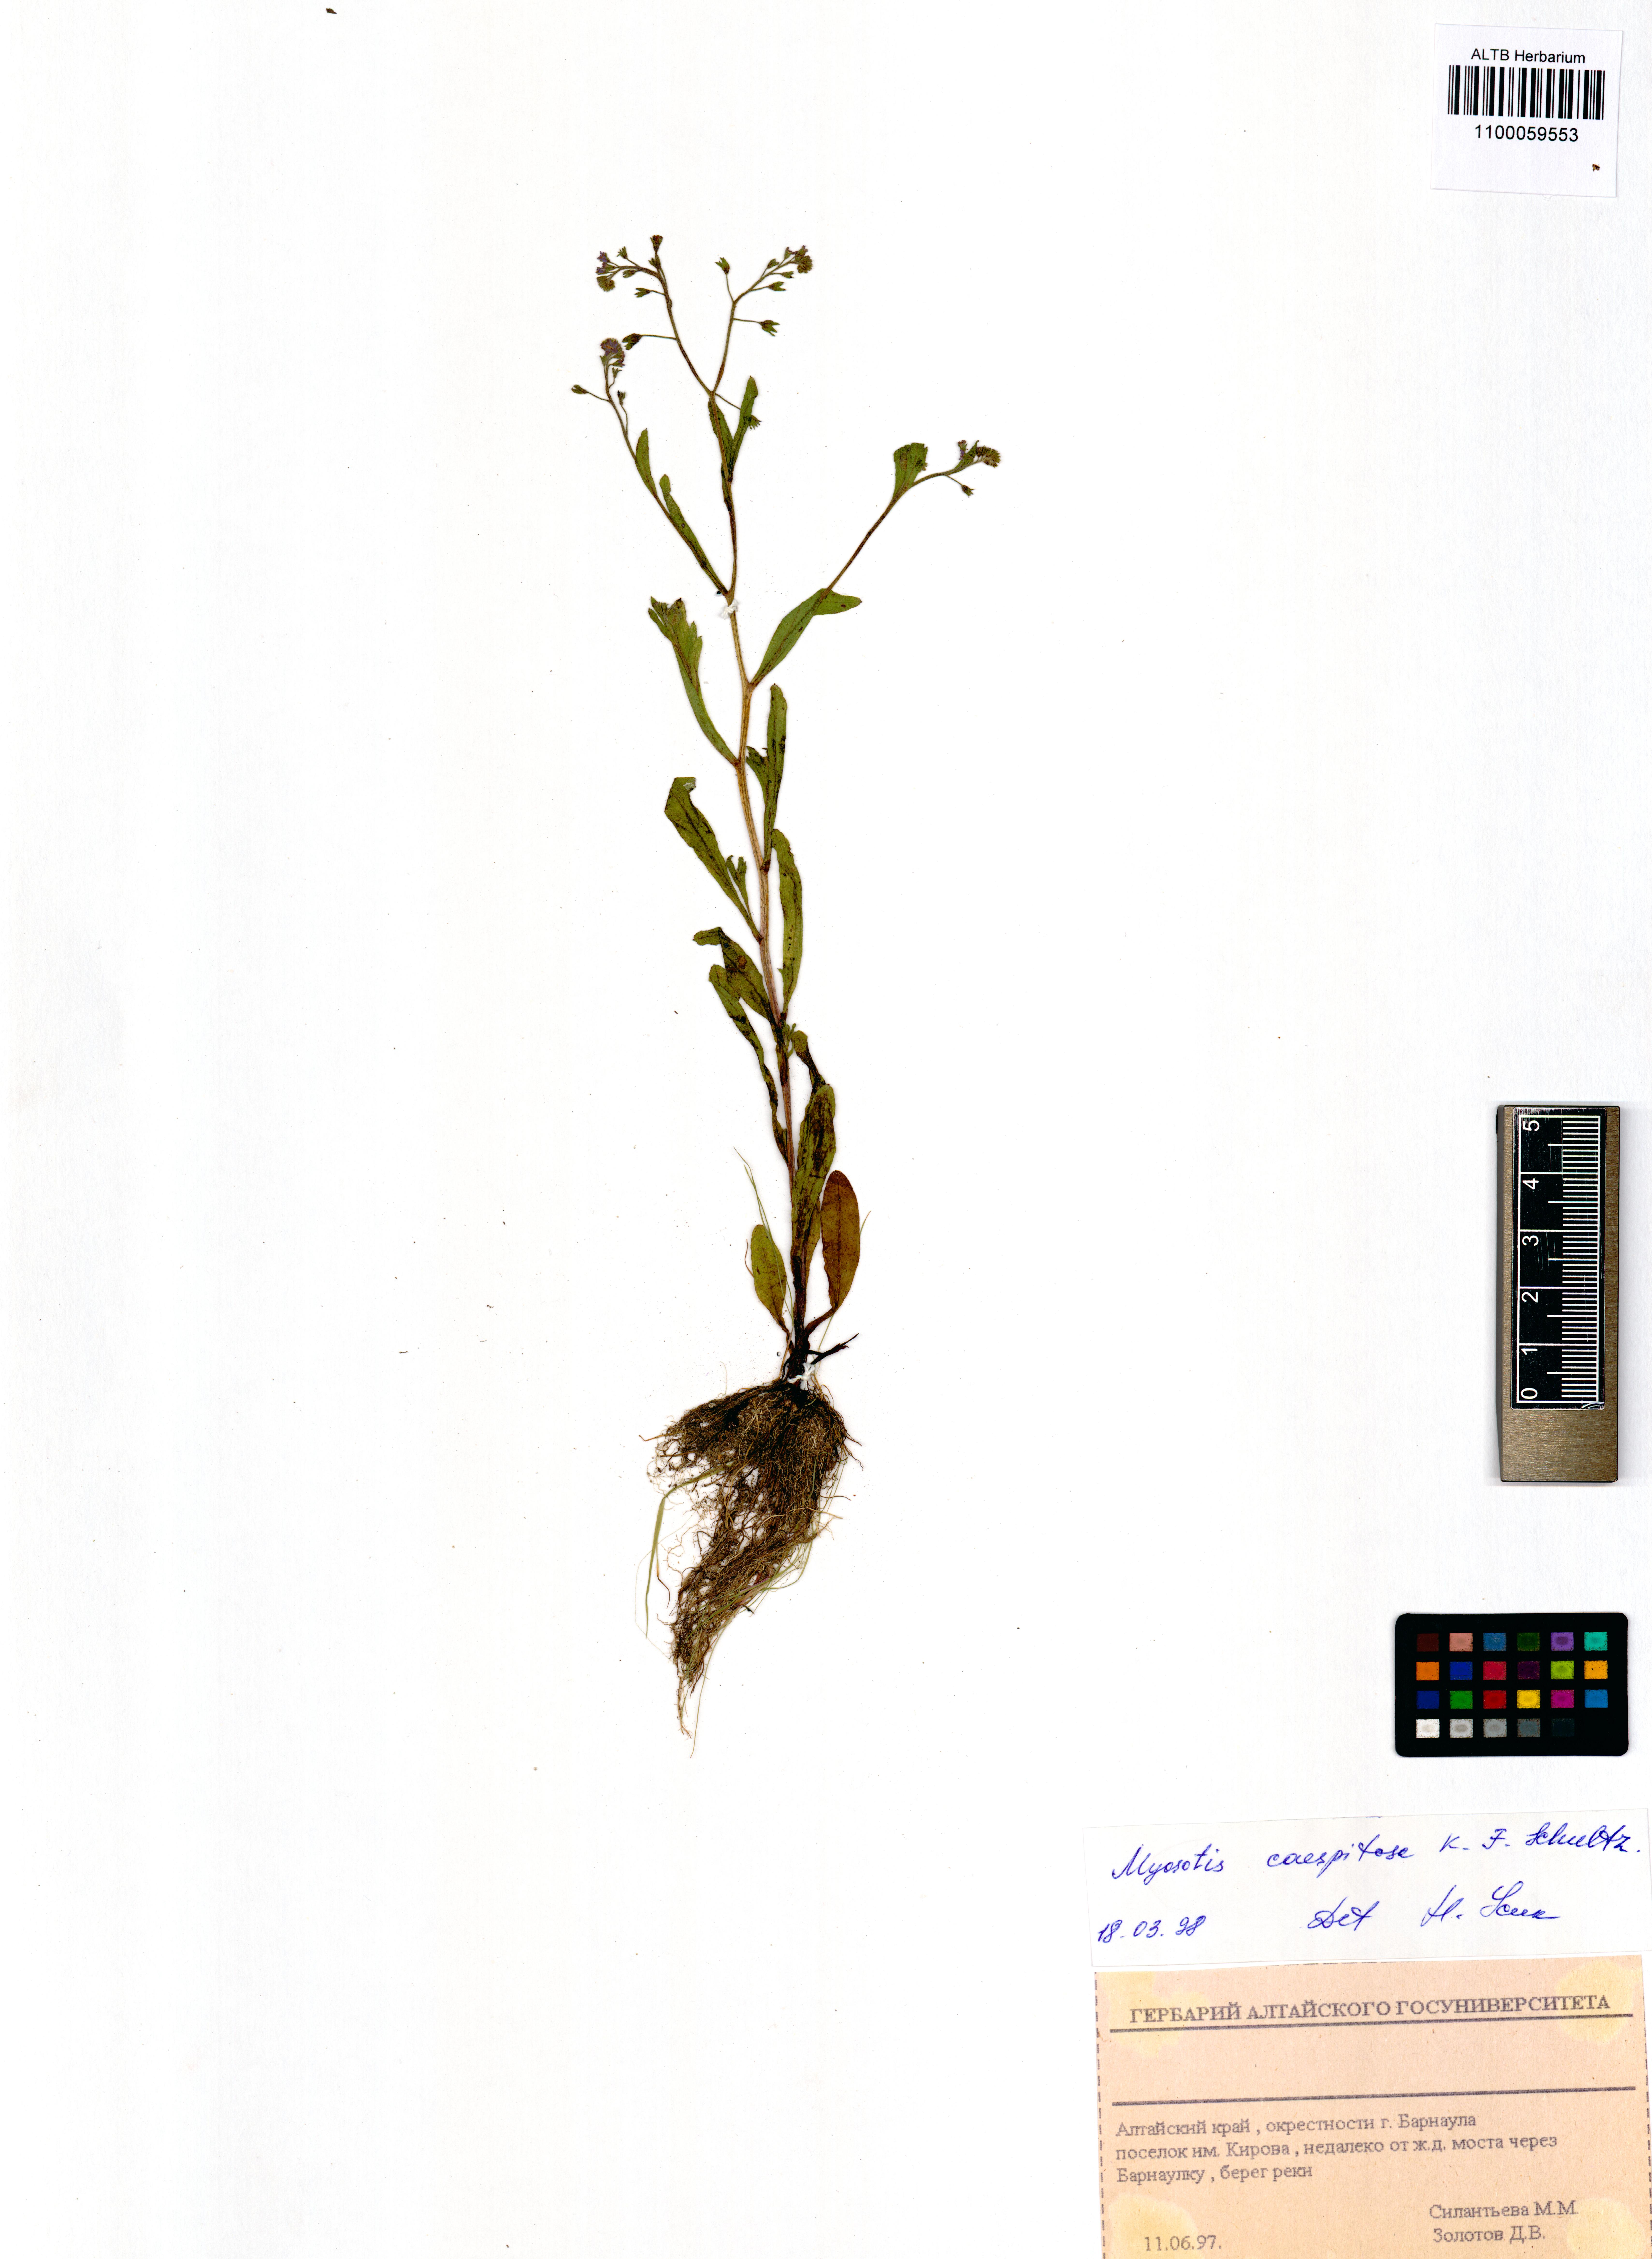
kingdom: Plantae
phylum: Tracheophyta
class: Magnoliopsida
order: Boraginales
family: Boraginaceae
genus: Myosotis
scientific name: Myosotis laxa
